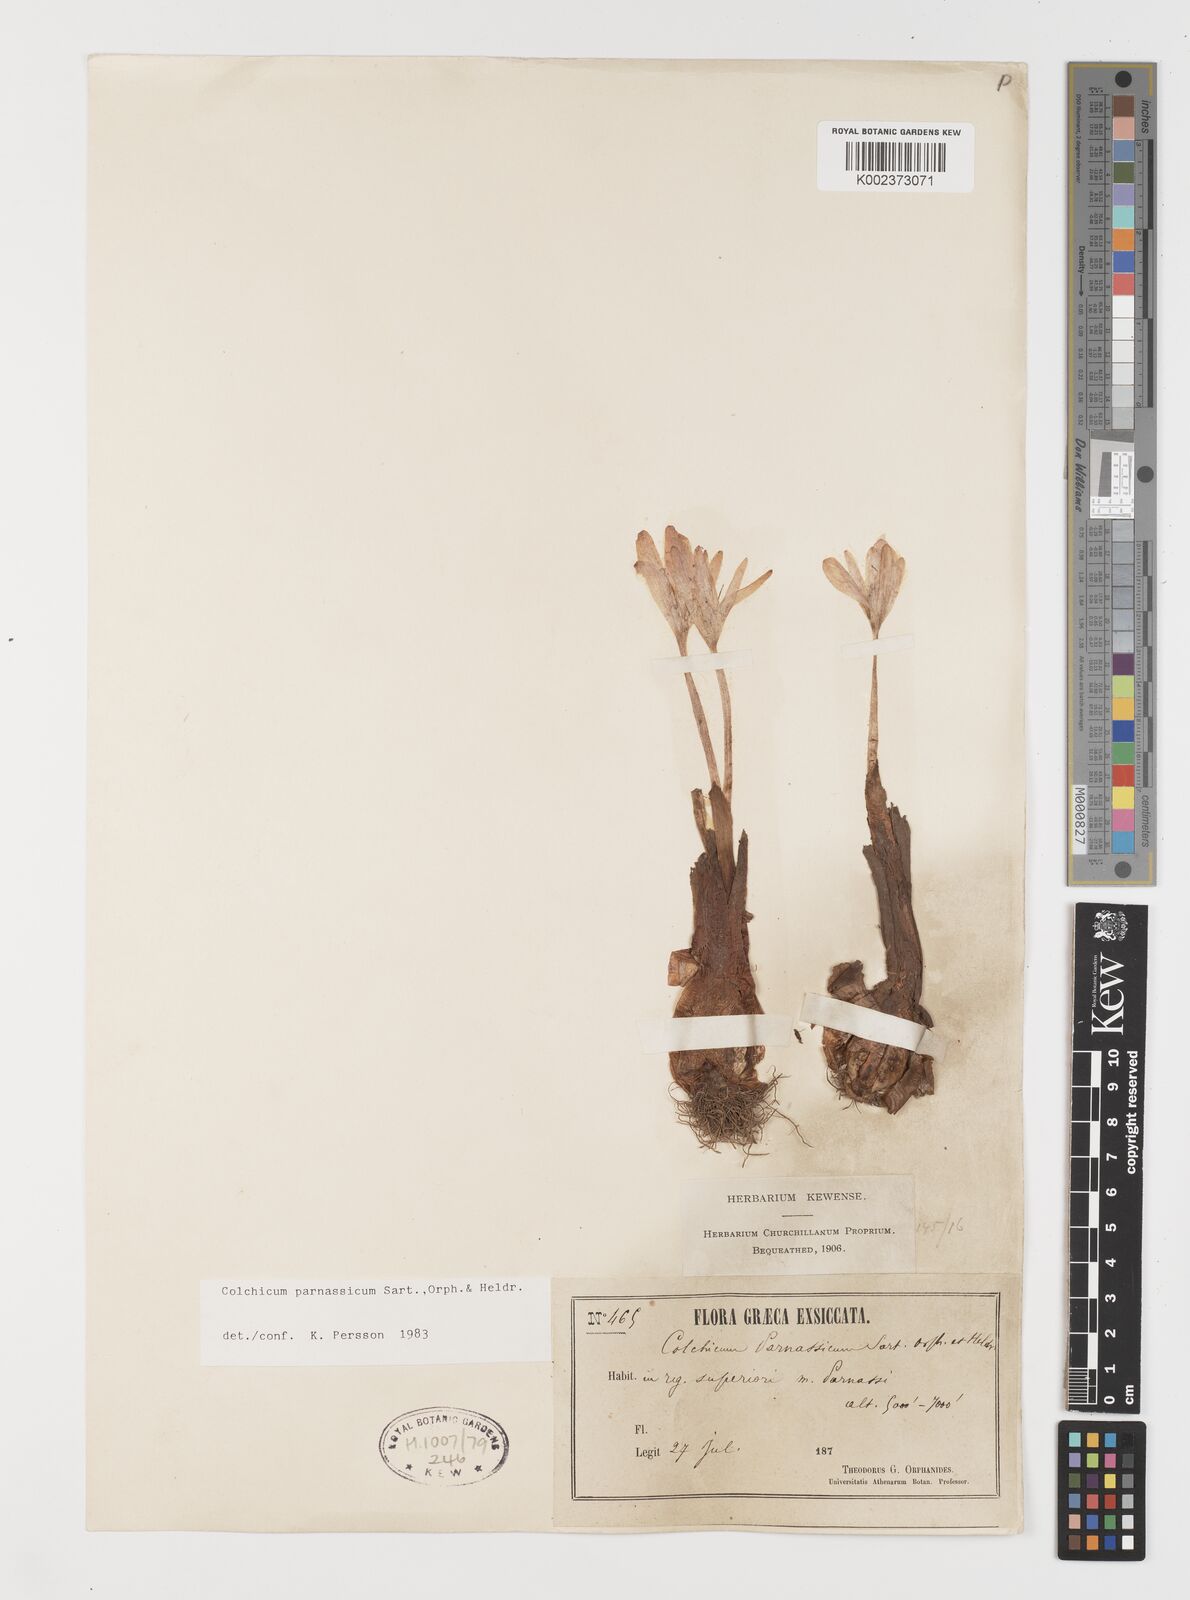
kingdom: Plantae
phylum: Tracheophyta
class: Liliopsida
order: Liliales
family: Colchicaceae
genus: Colchicum
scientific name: Colchicum parnassicum
